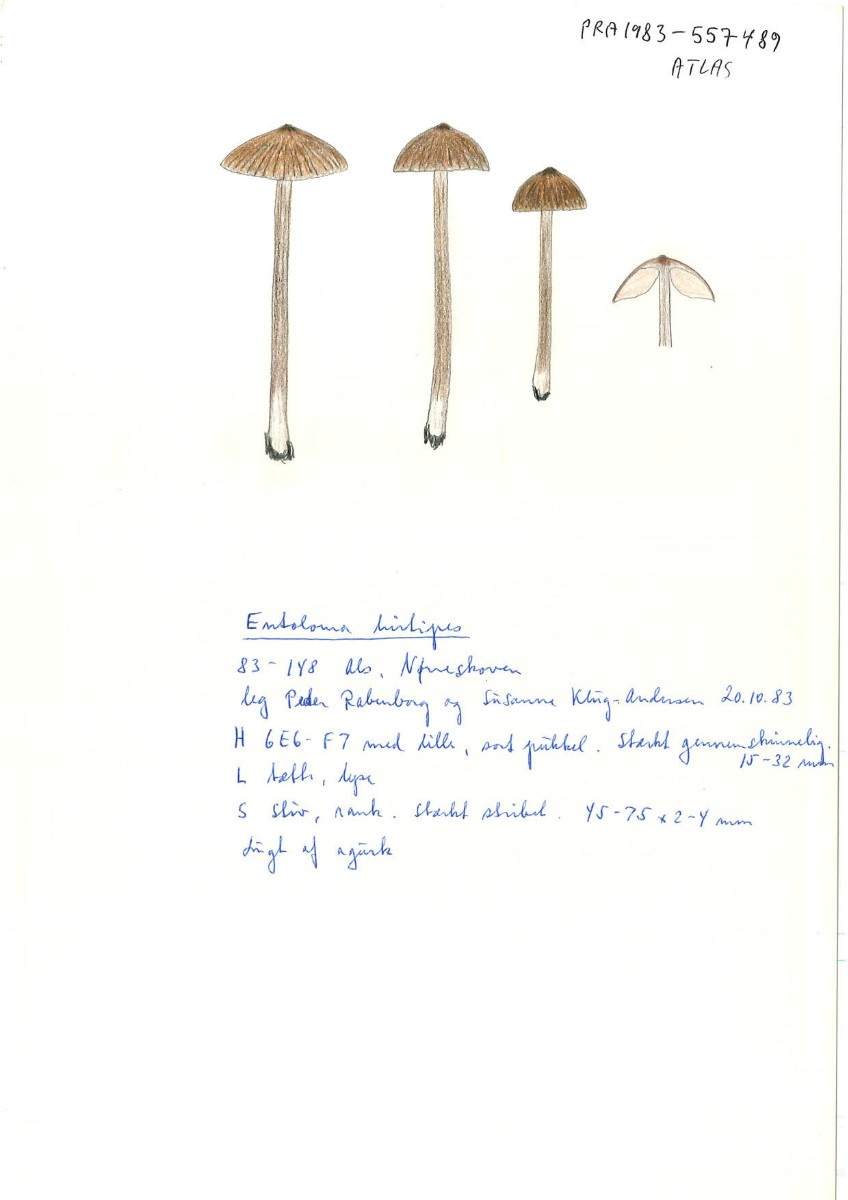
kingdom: Fungi
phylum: Basidiomycota
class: Agaricomycetes
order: Agaricales
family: Entolomataceae
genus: Entoloma
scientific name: Entoloma hirtipes
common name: kegle-rødblad
